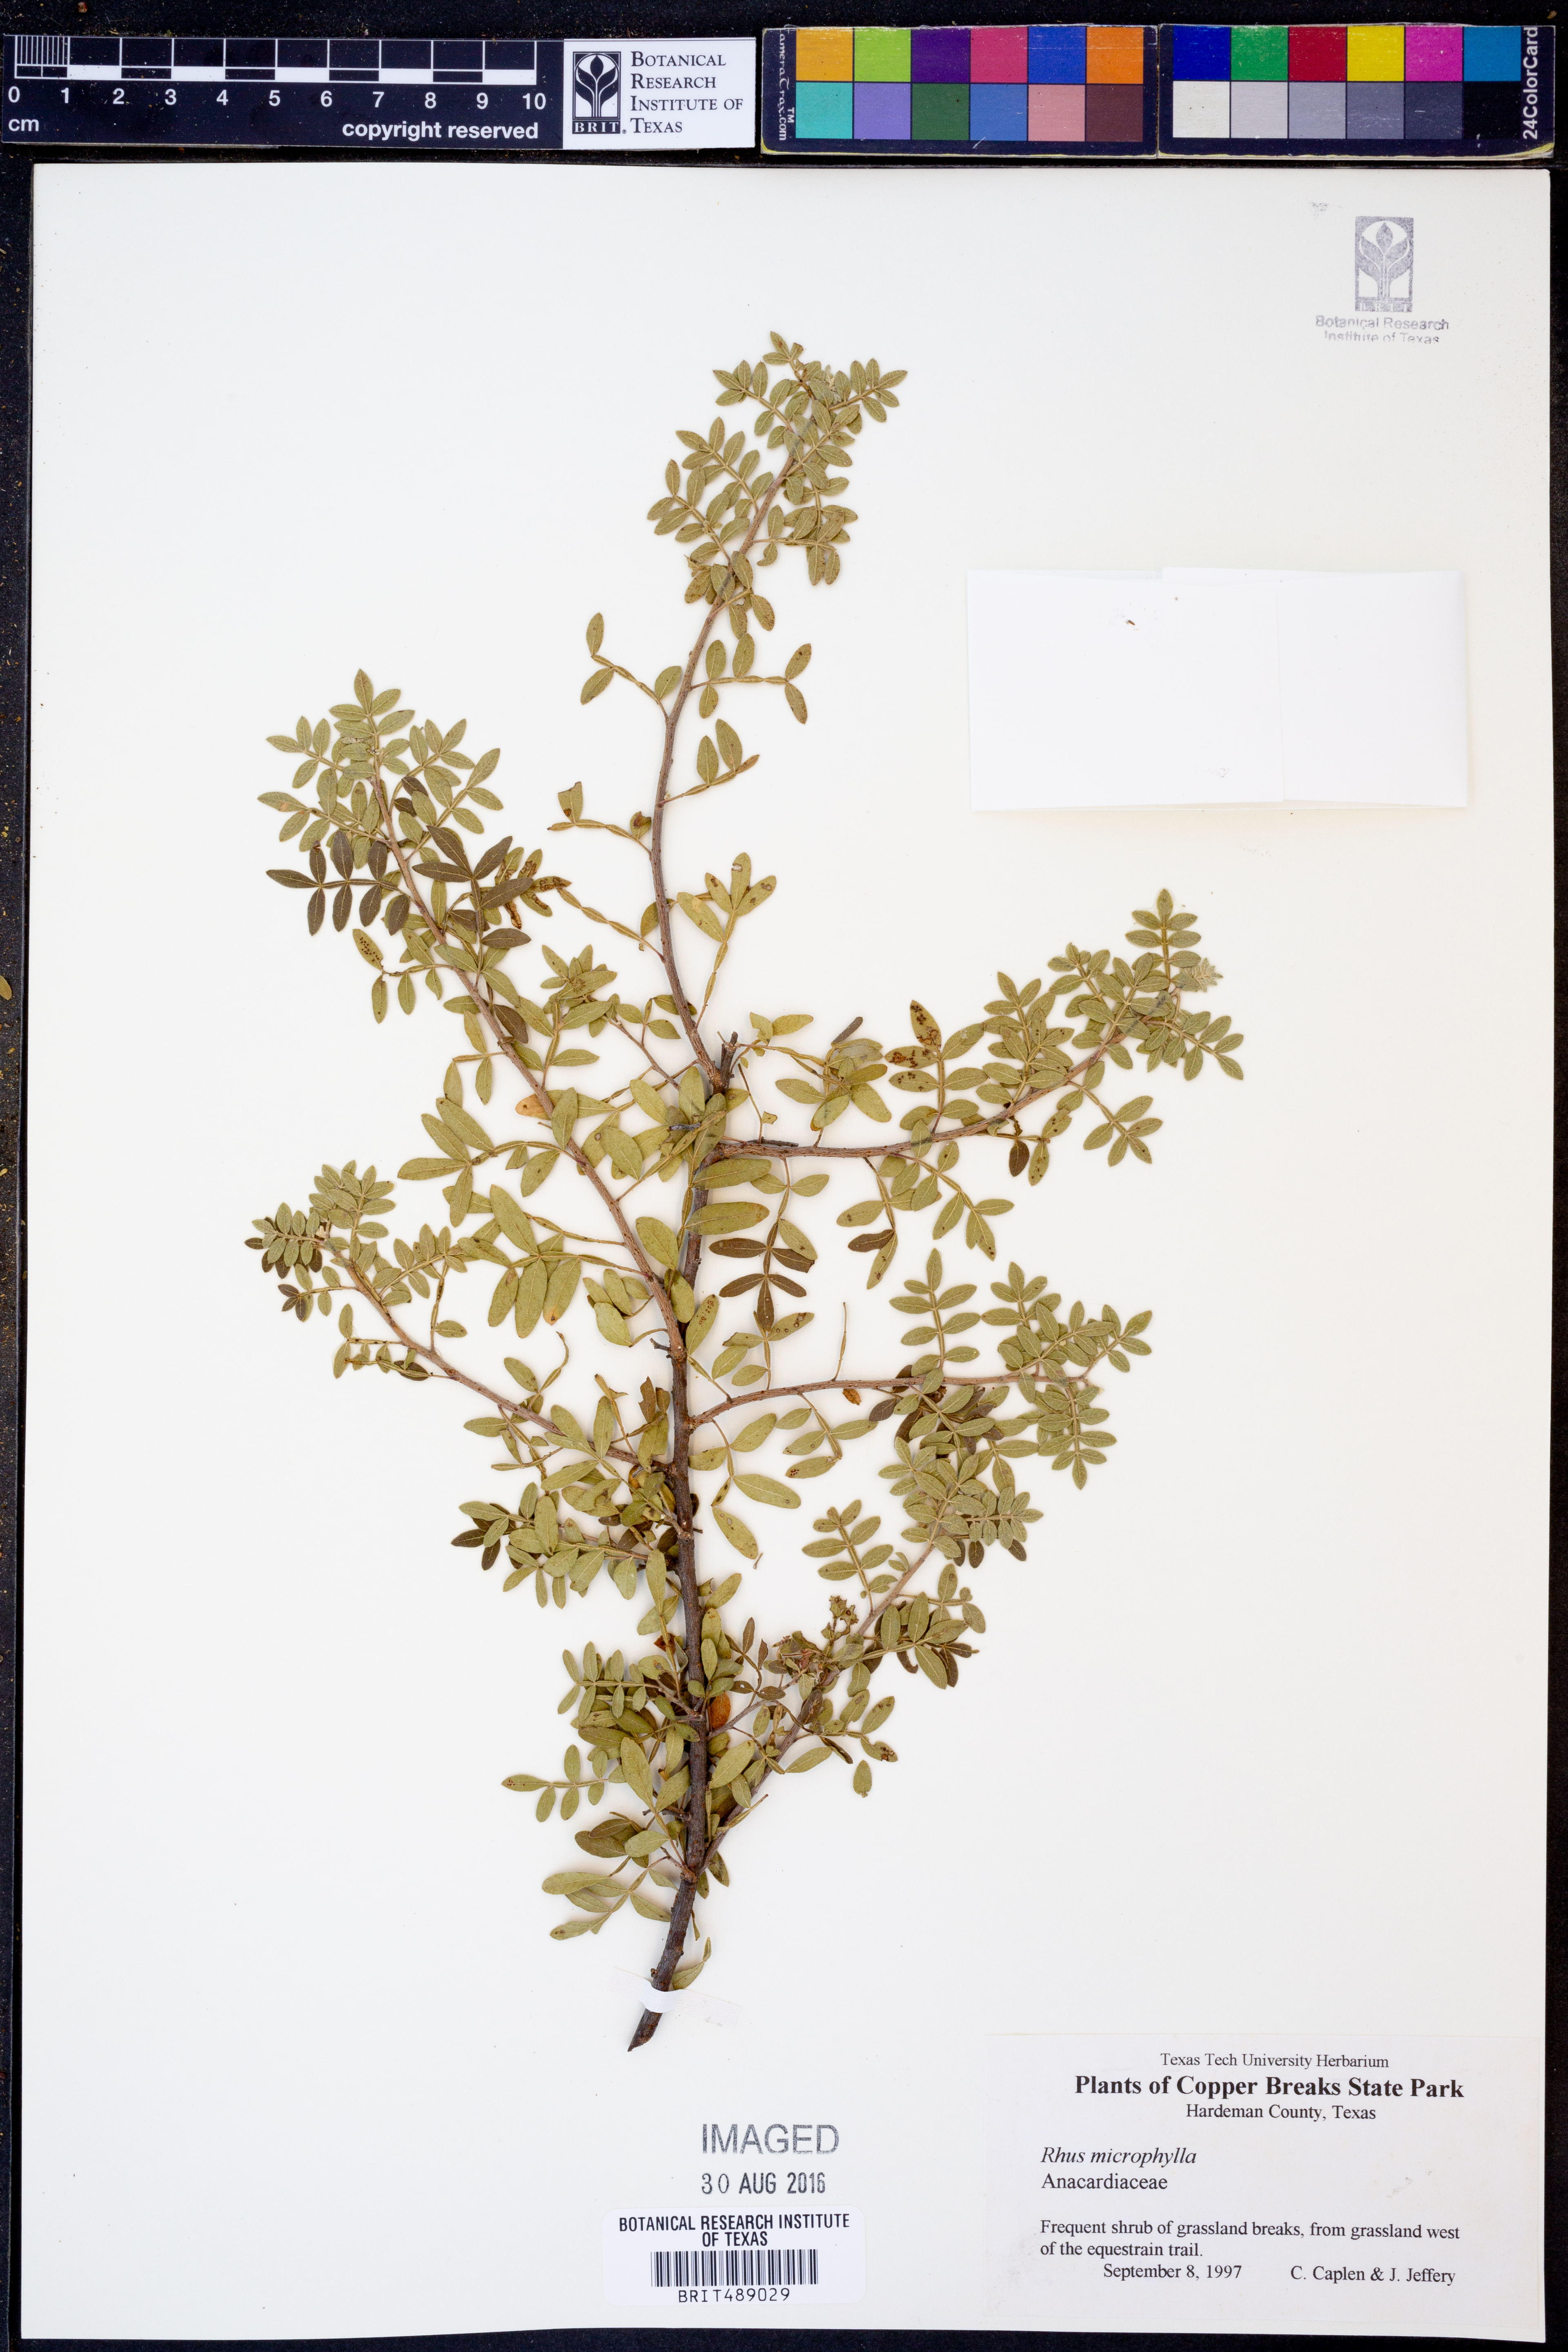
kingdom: Plantae
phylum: Tracheophyta
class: Magnoliopsida
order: Sapindales
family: Anacardiaceae
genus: Rhus
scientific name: Rhus microphylla
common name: Desert sumac
